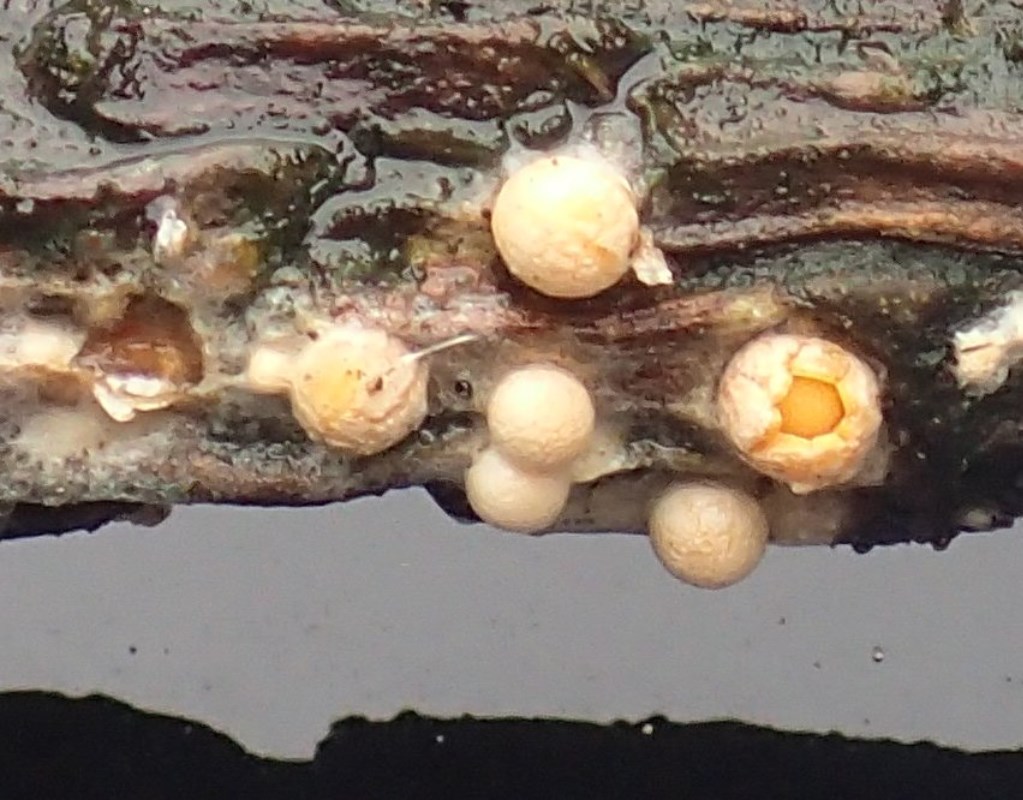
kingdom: Fungi
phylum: Basidiomycota
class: Agaricomycetes
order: Geastrales
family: Geastraceae
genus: Sphaerobolus
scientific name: Sphaerobolus stellatus
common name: bombekaster
